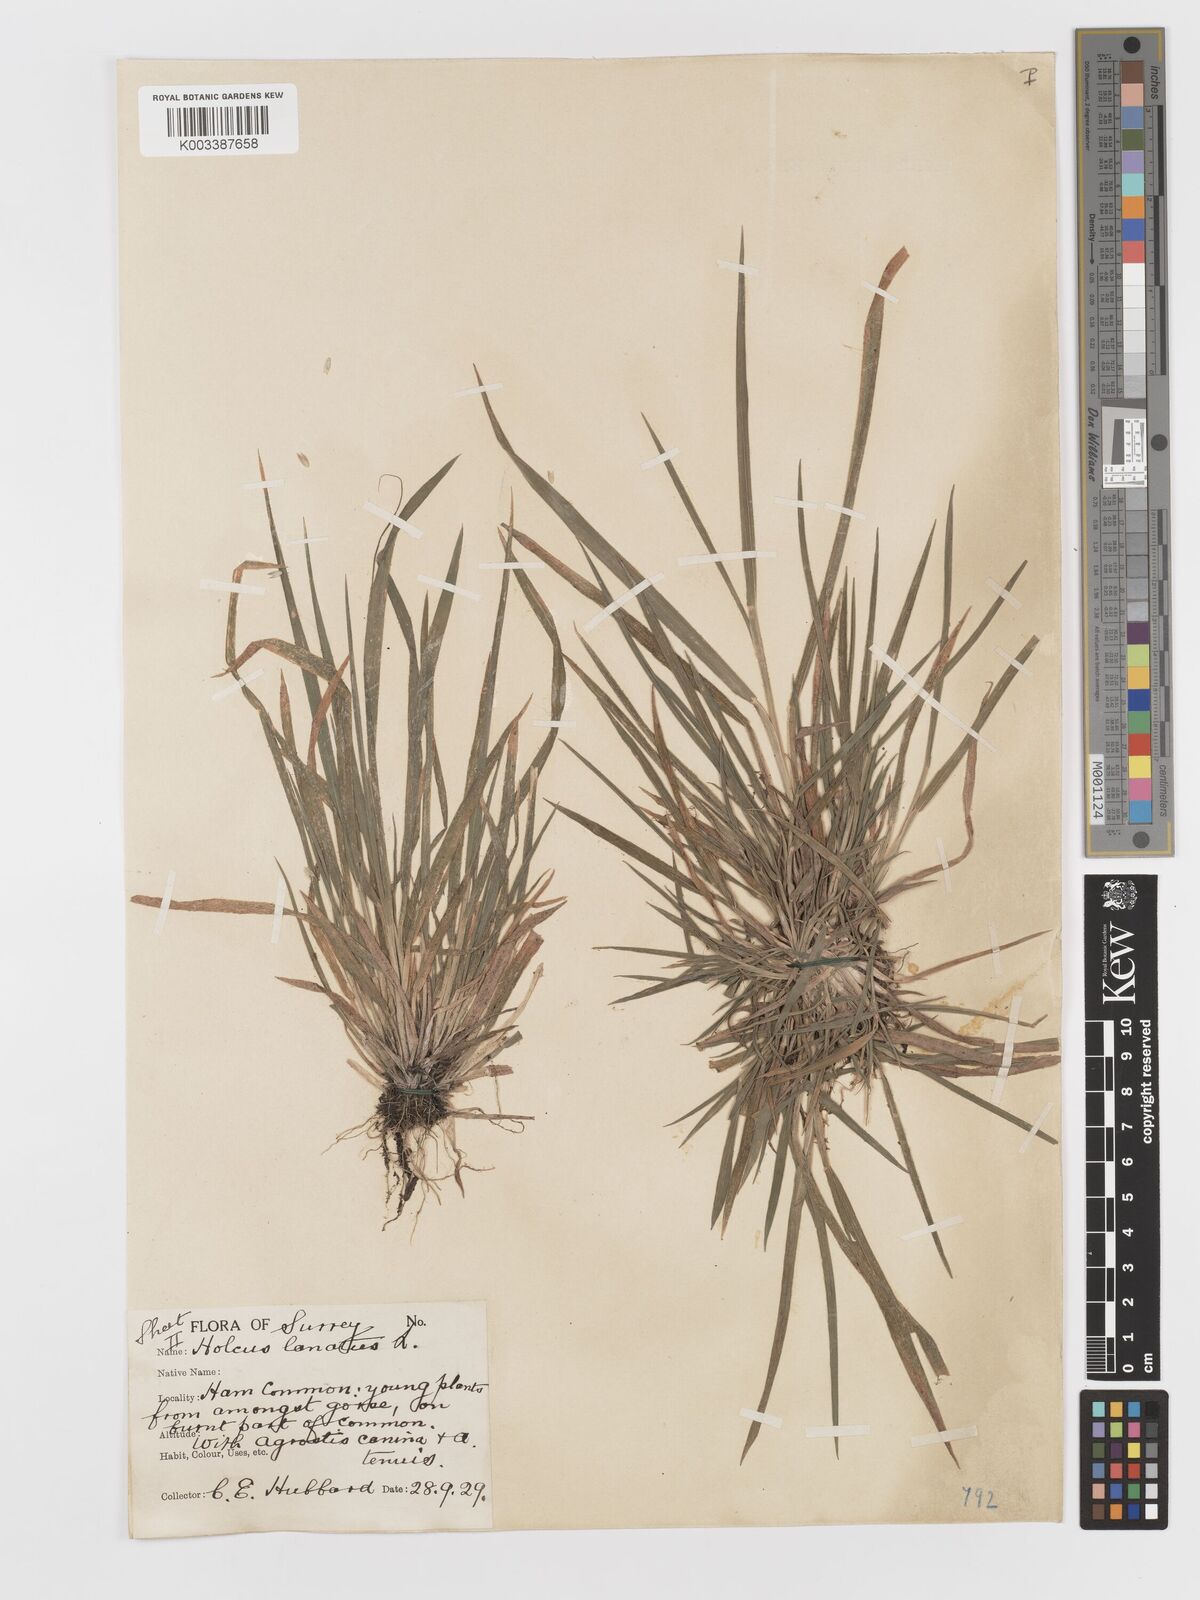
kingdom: Plantae
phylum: Tracheophyta
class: Liliopsida
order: Poales
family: Poaceae
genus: Holcus
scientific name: Holcus lanatus
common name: Yorkshire-fog
